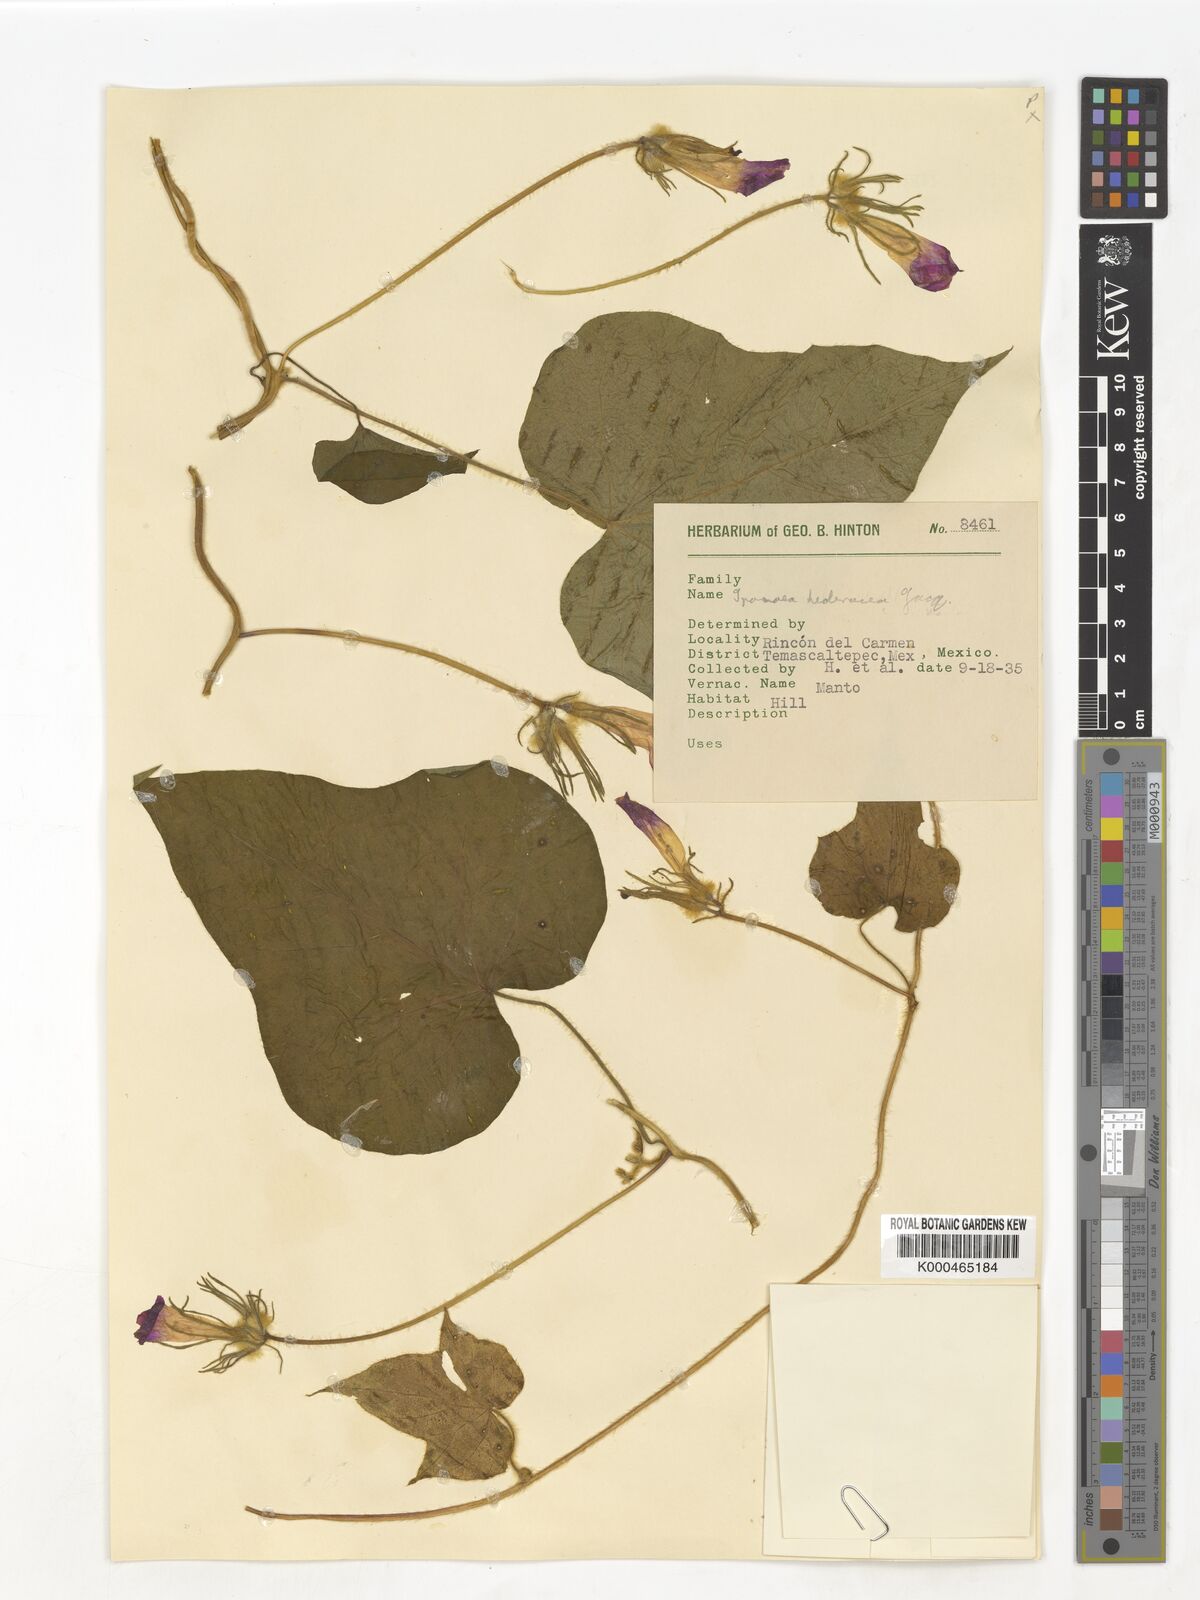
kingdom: Plantae
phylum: Tracheophyta
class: Magnoliopsida
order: Solanales
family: Convolvulaceae
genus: Ipomoea
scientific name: Ipomoea hederacea
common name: Ivy-leaved morning-glory
